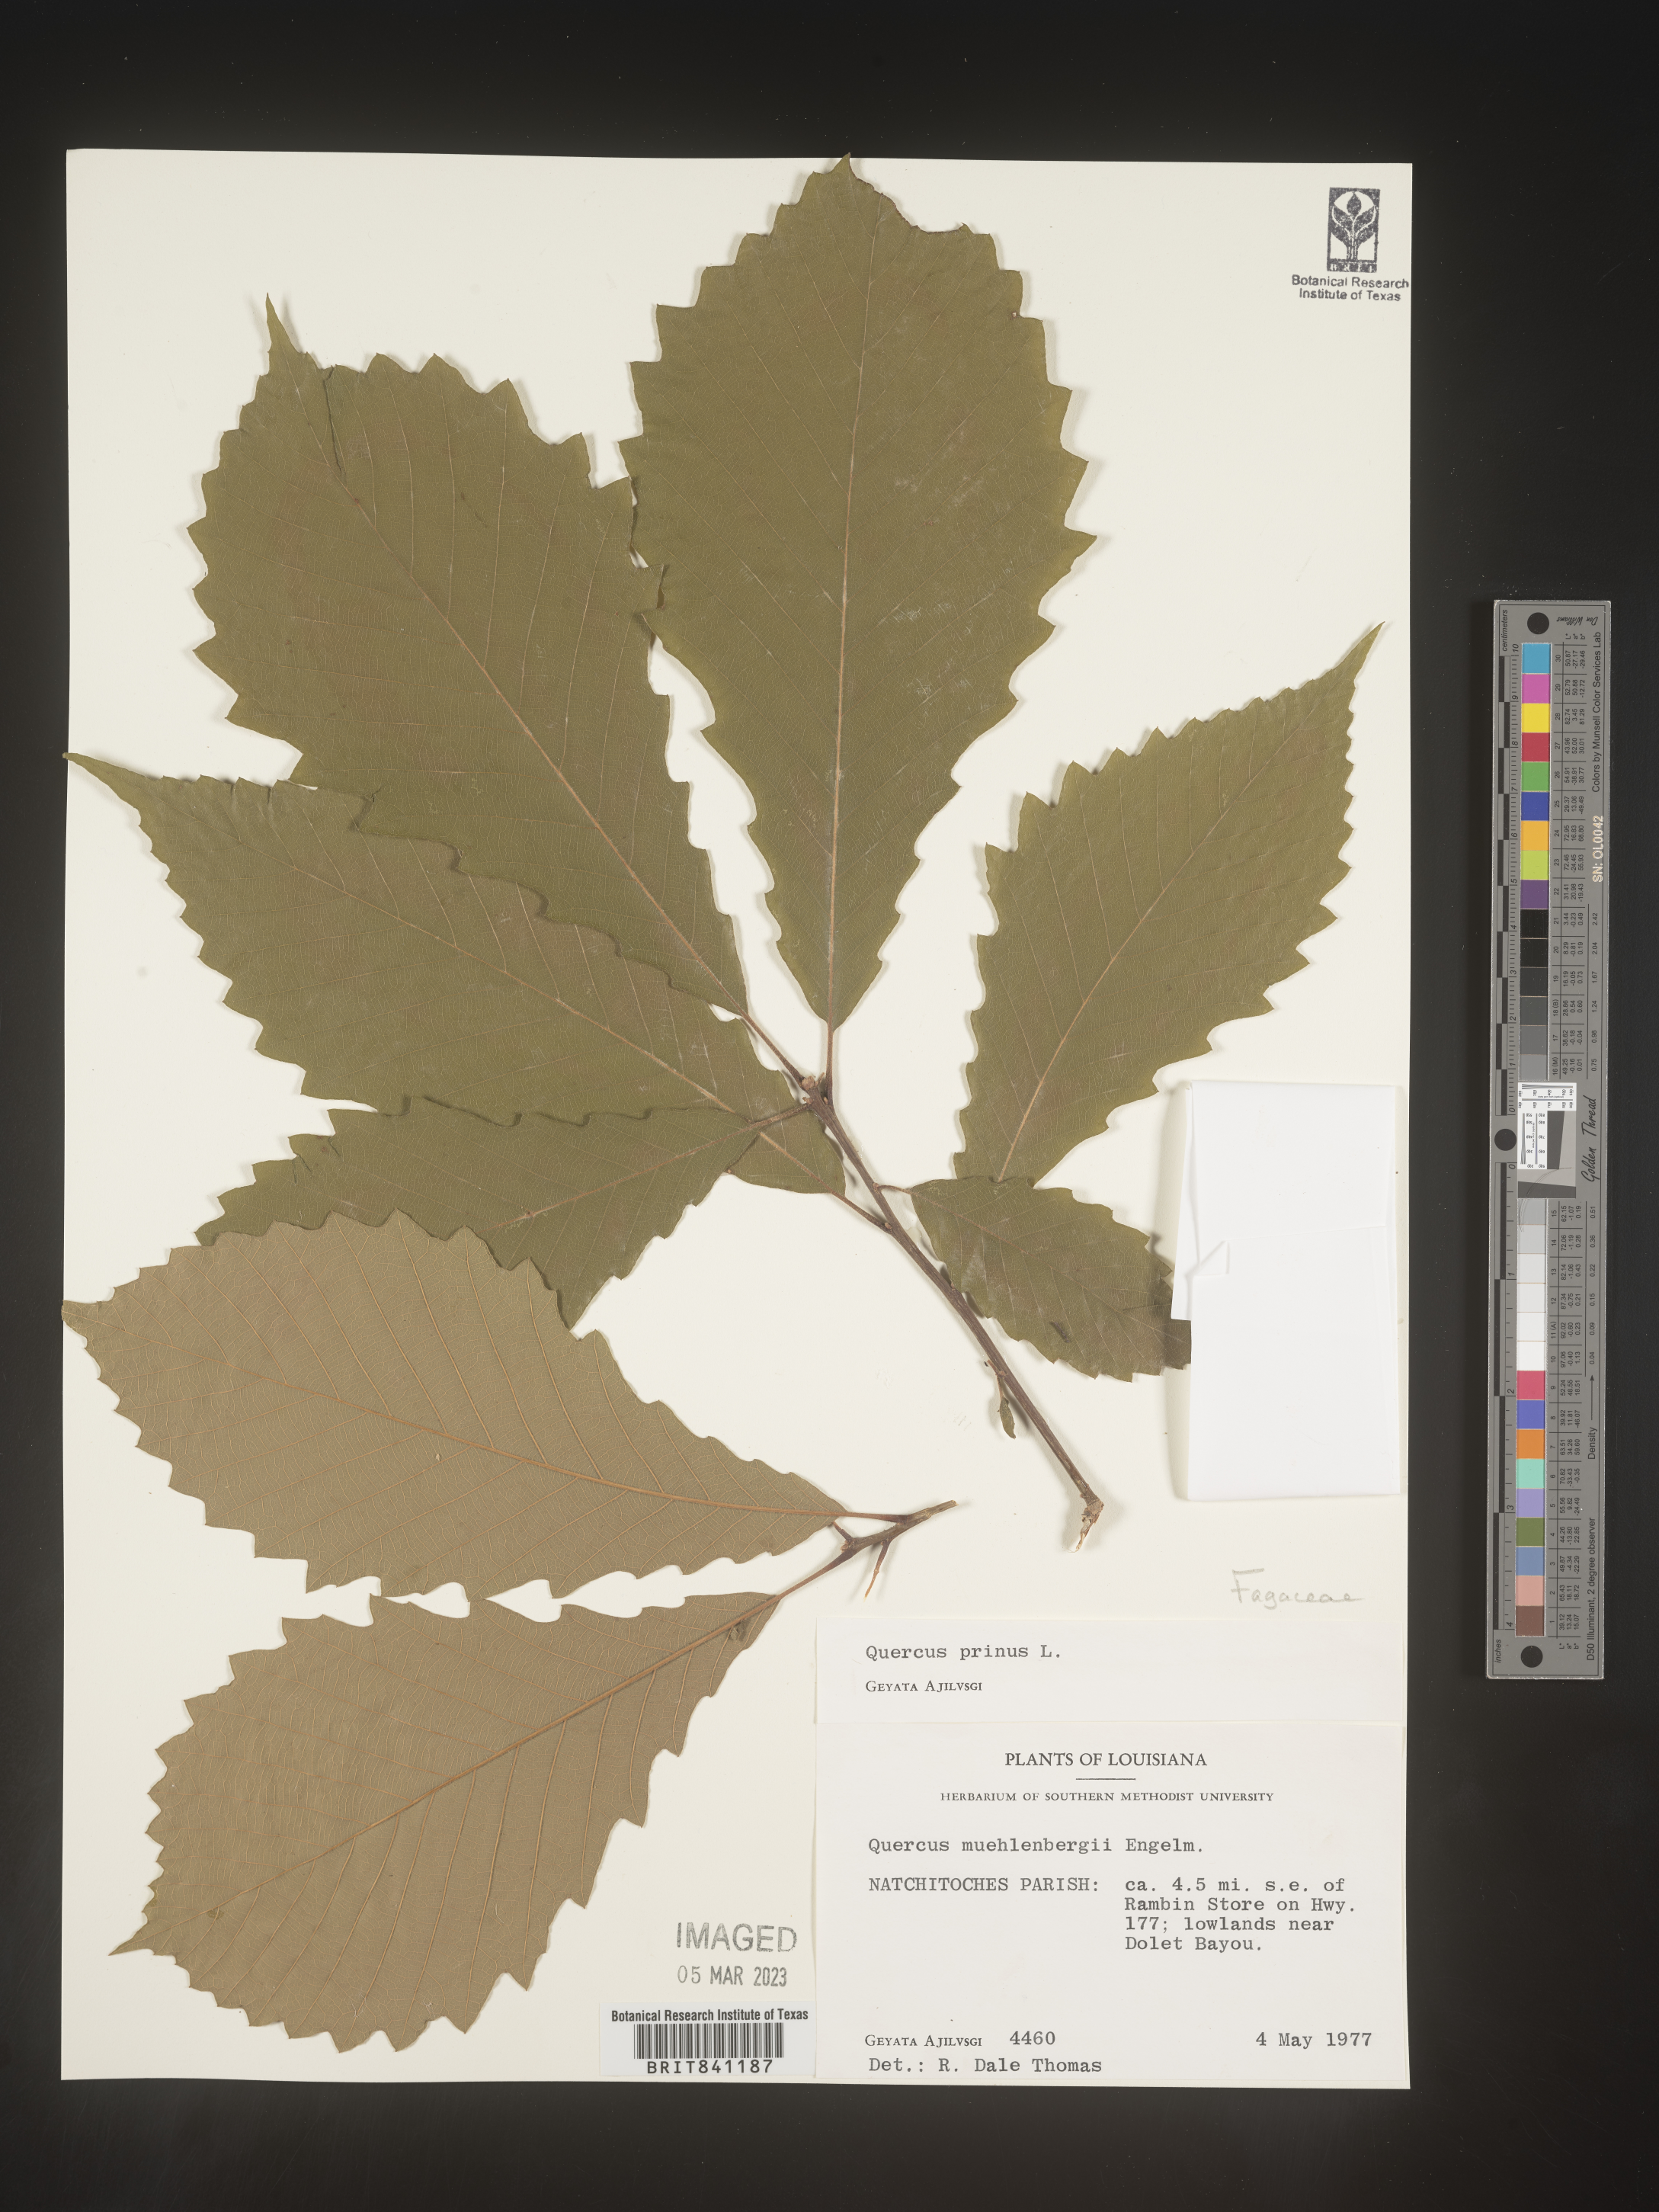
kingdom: Plantae
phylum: Tracheophyta
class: Magnoliopsida
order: Fagales
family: Fagaceae
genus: Quercus
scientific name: Quercus michauxii
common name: Swamp chestnut oak
